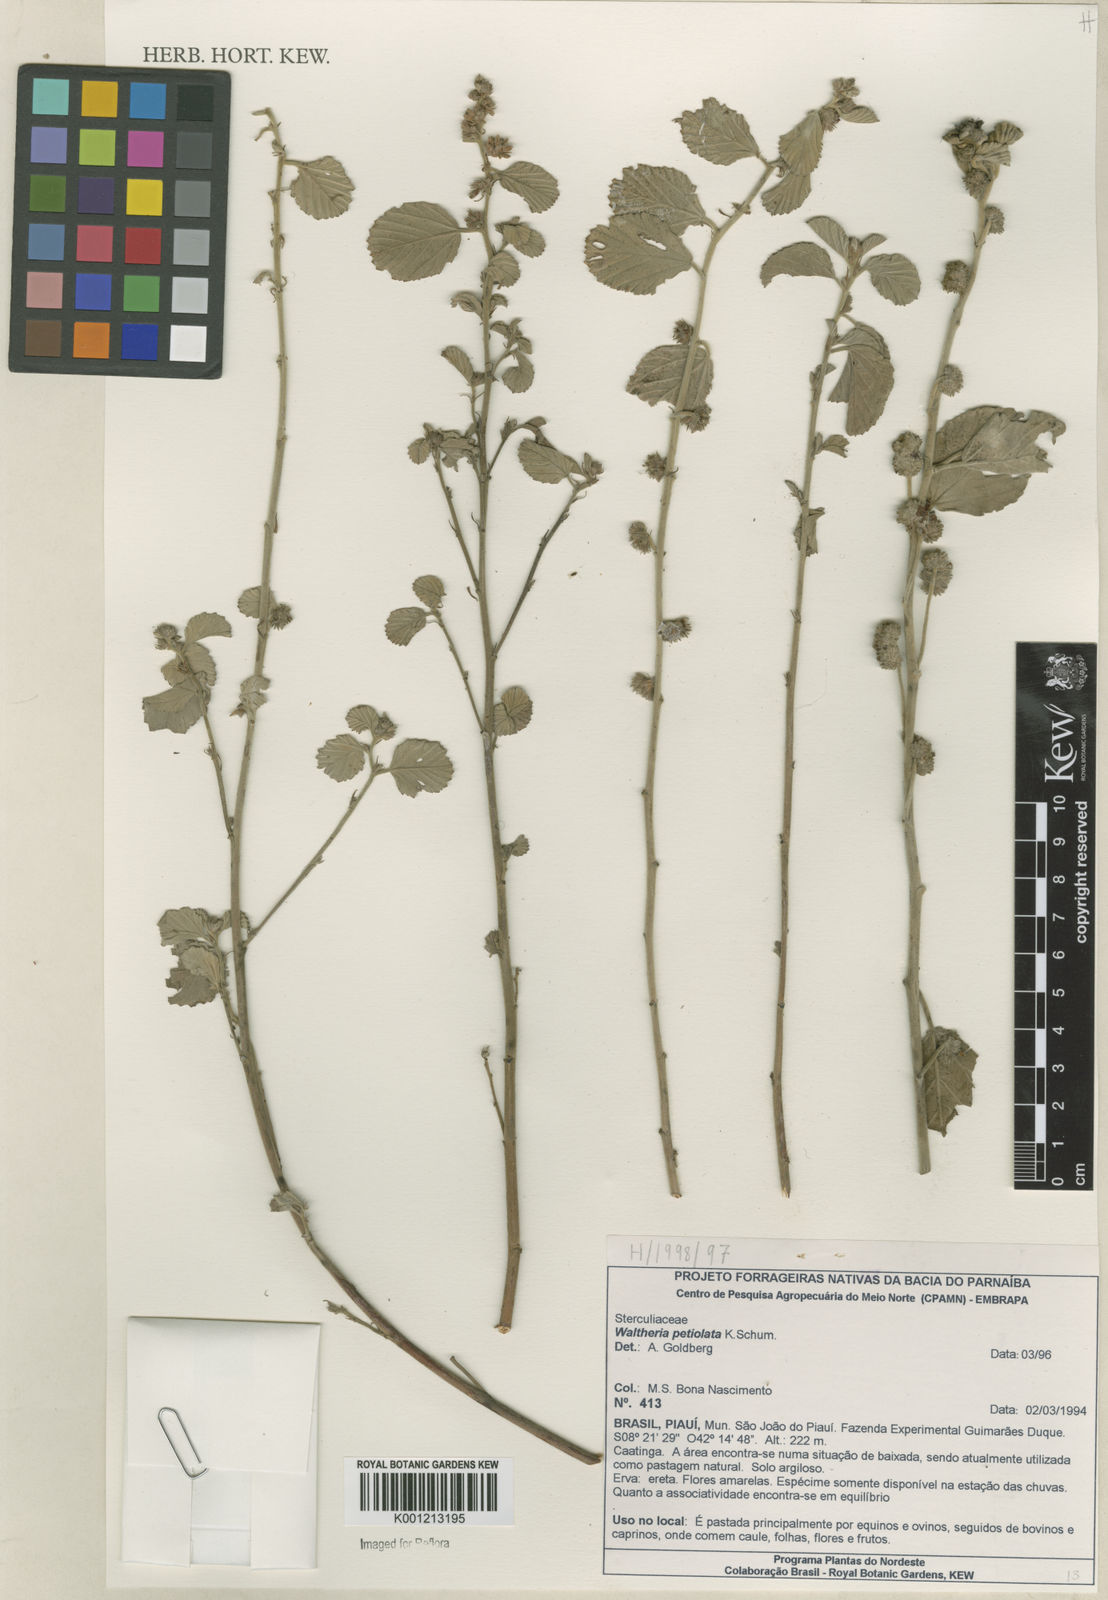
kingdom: Plantae
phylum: Tracheophyta
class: Magnoliopsida
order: Malvales
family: Malvaceae
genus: Waltheria
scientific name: Waltheria petiolata
